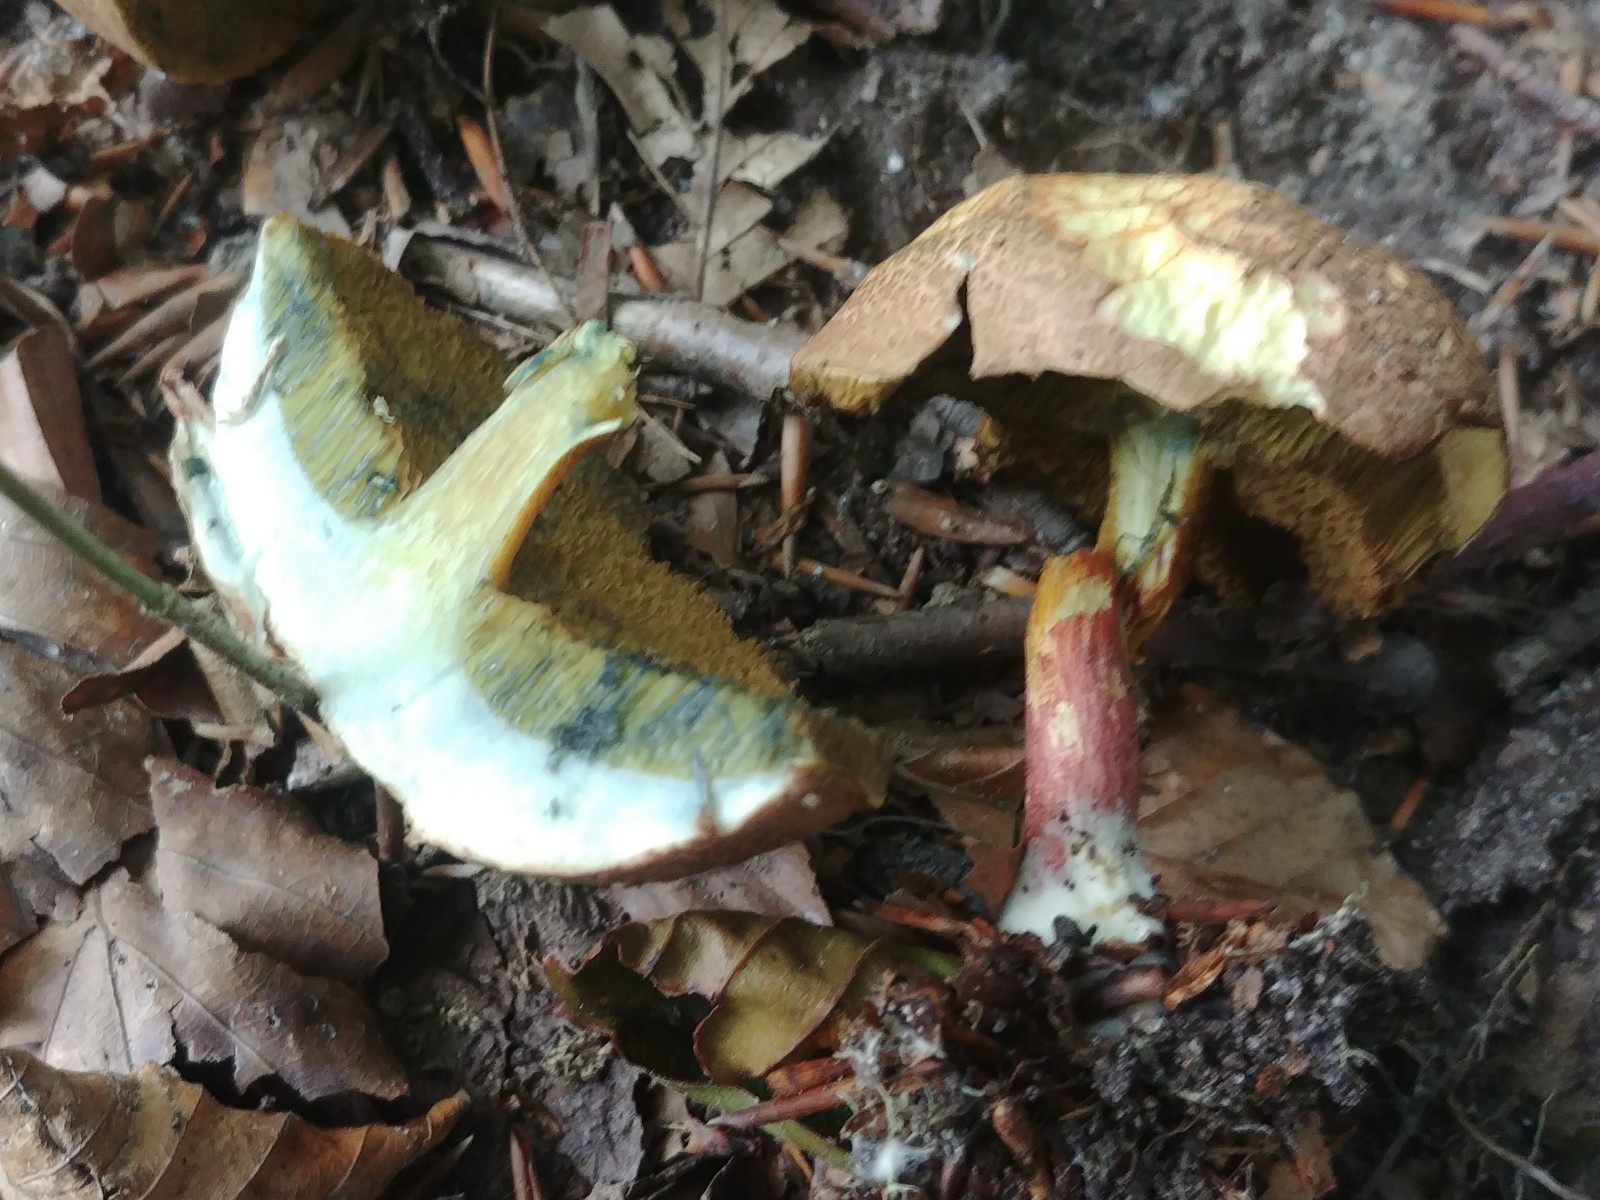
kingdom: Fungi
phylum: Basidiomycota
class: Agaricomycetes
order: Boletales
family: Boletaceae
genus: Xerocomellus
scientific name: Xerocomellus cisalpinus
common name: finsprukken rørhat
